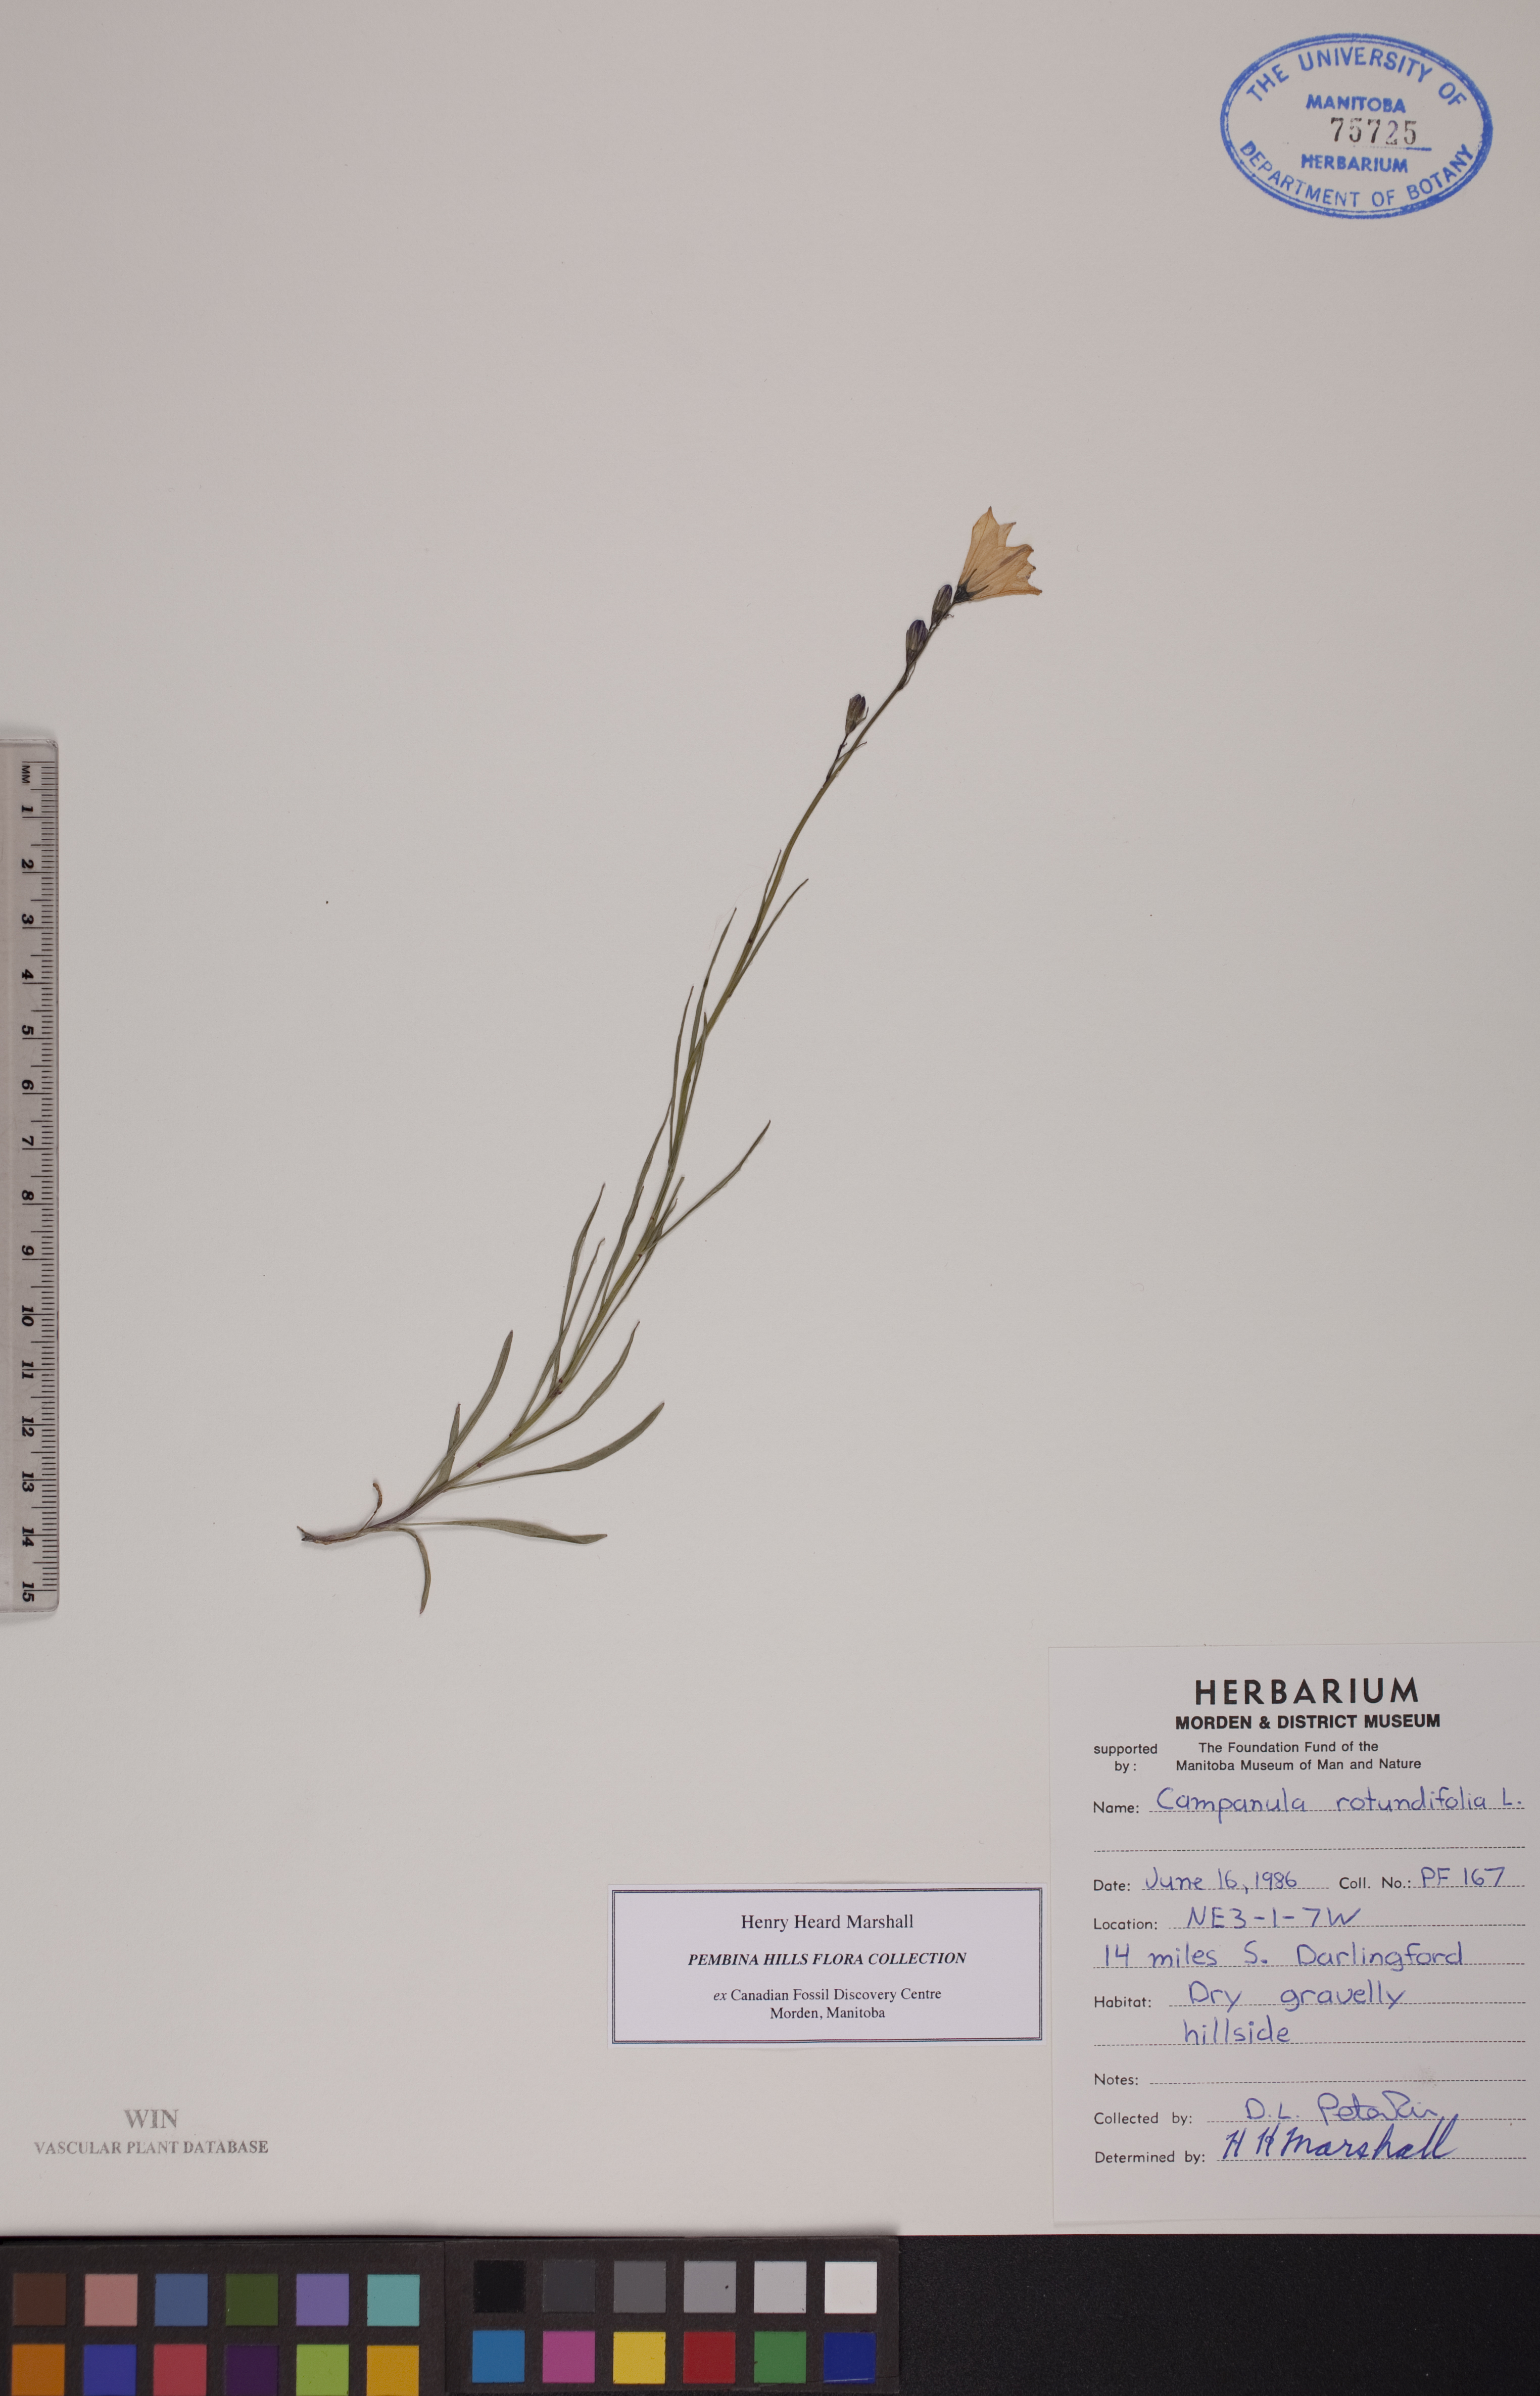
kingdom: Plantae
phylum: Tracheophyta
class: Magnoliopsida
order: Asterales
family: Campanulaceae
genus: Campanula
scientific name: Campanula rotundifolia
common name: Harebell
